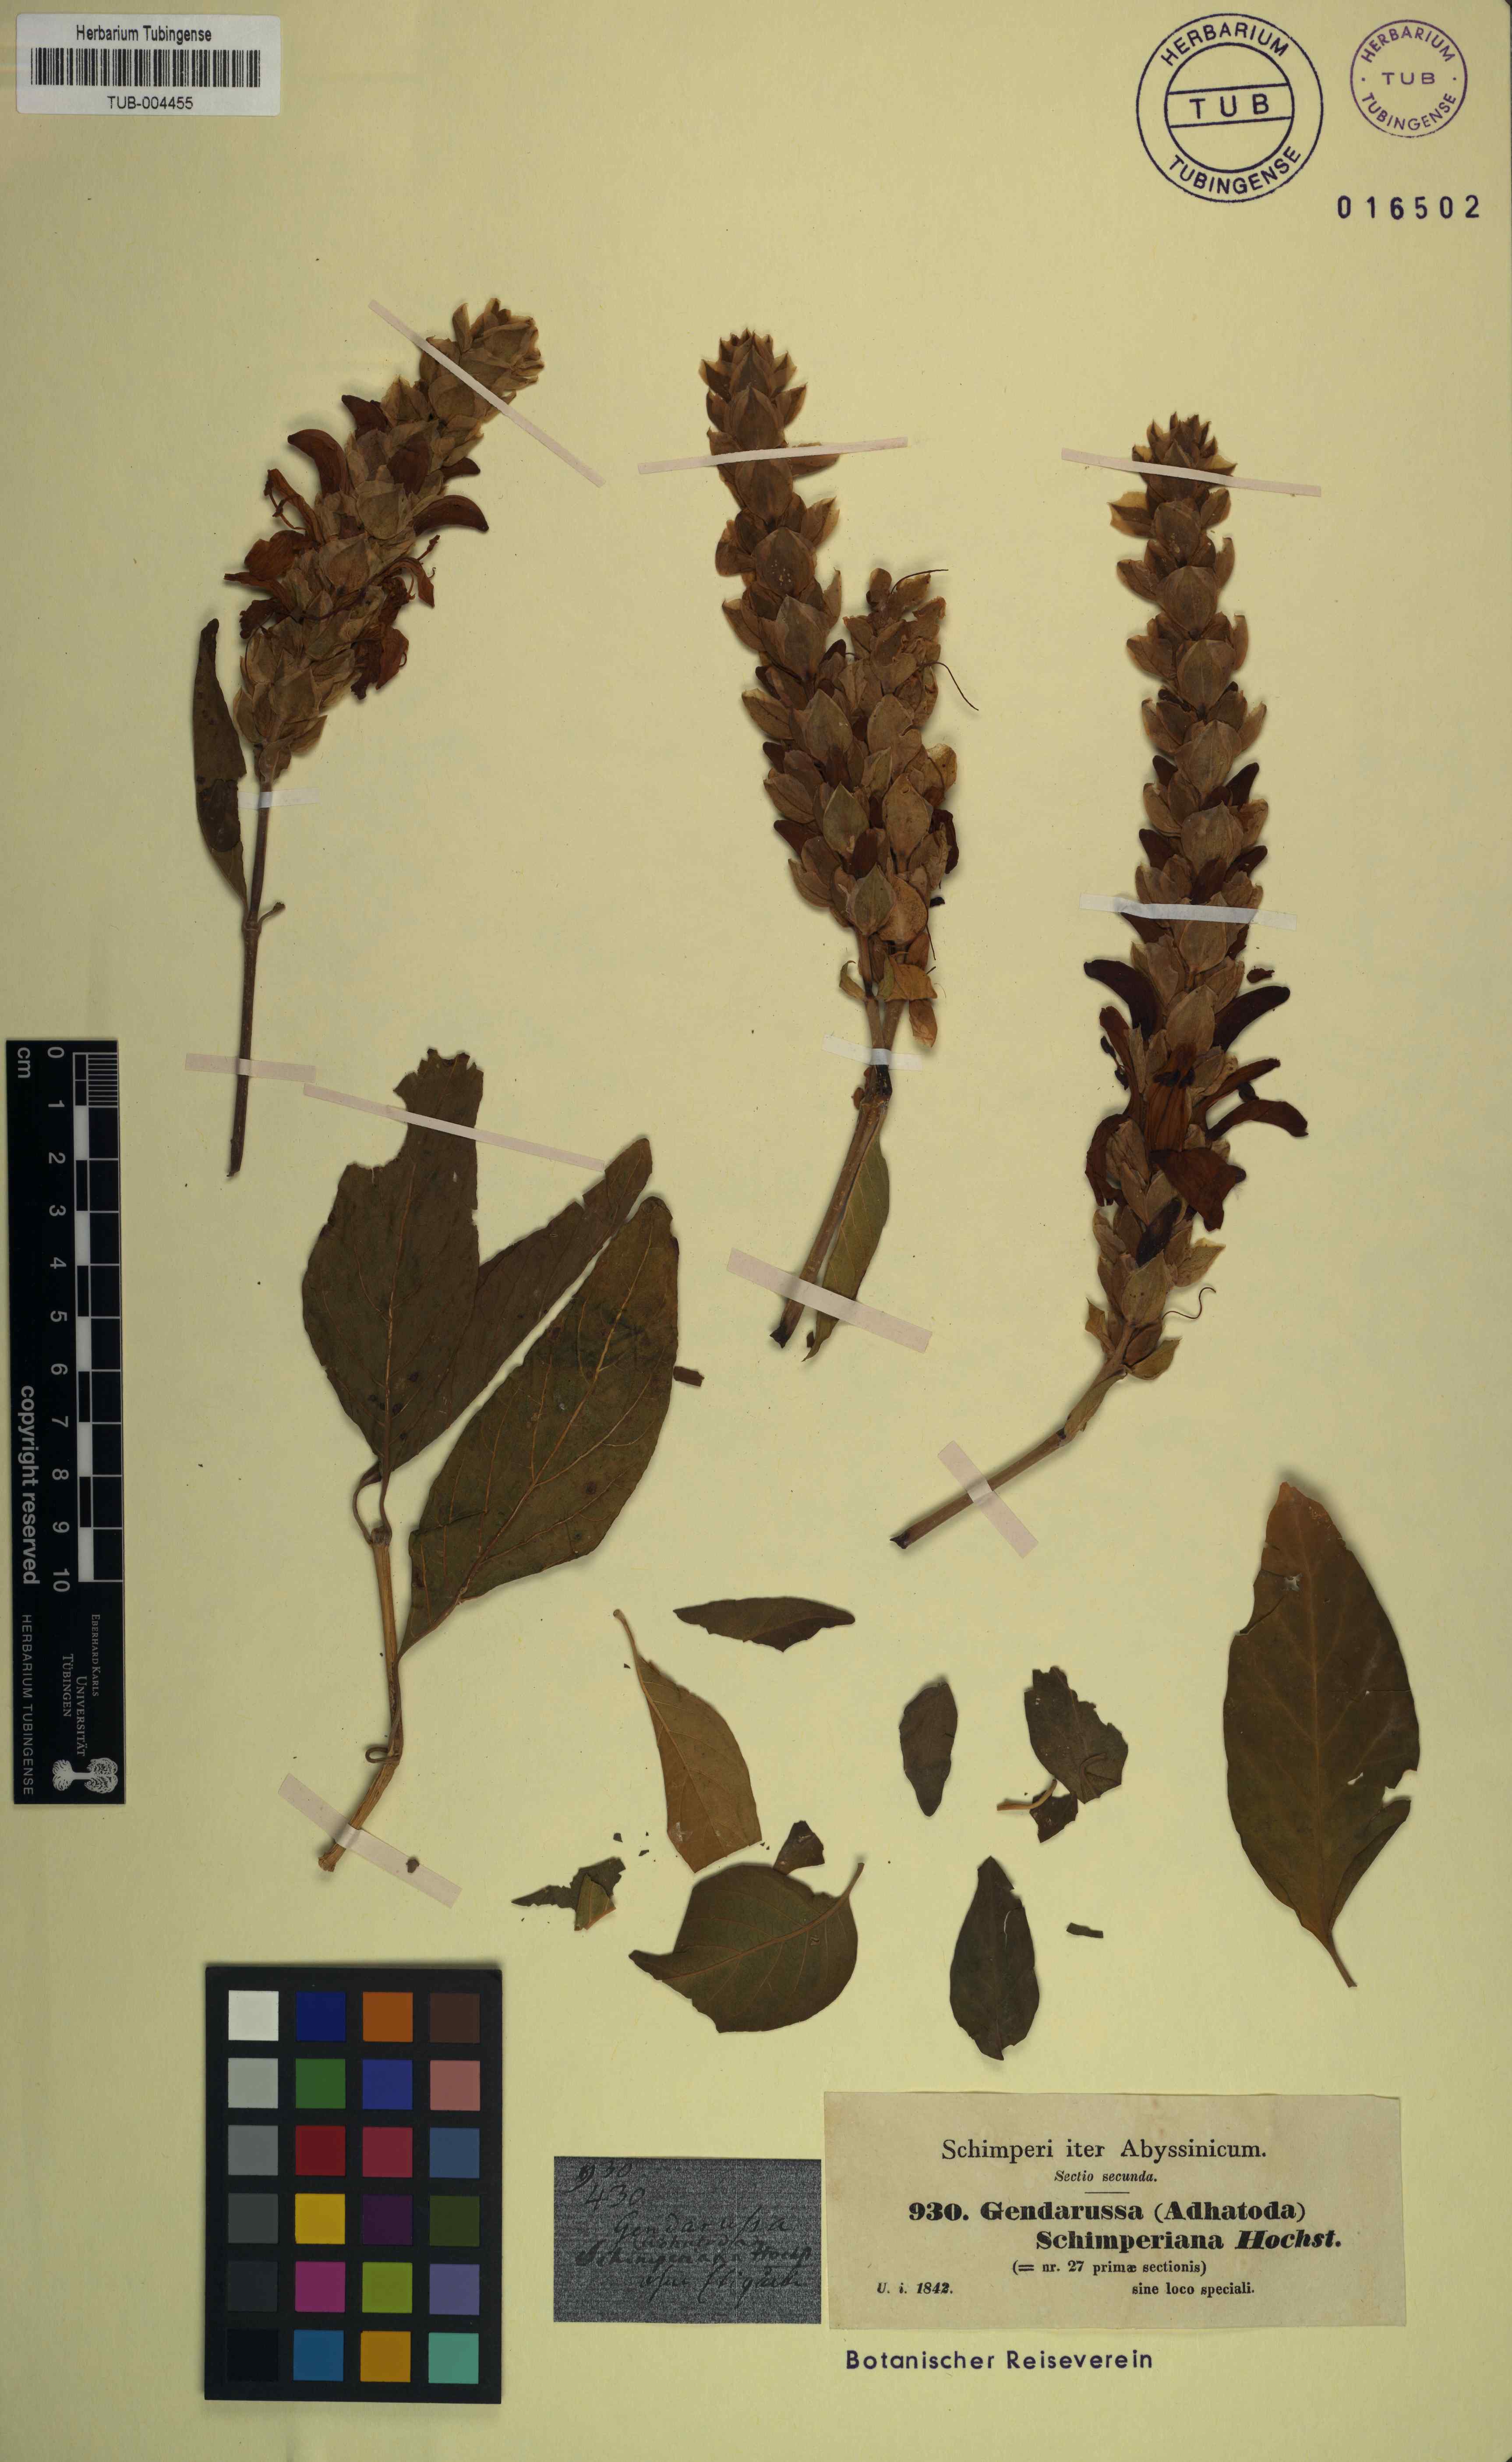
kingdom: Plantae
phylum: Tracheophyta
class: Magnoliopsida
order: Lamiales
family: Acanthaceae
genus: Justicia
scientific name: Justicia schimperiana
